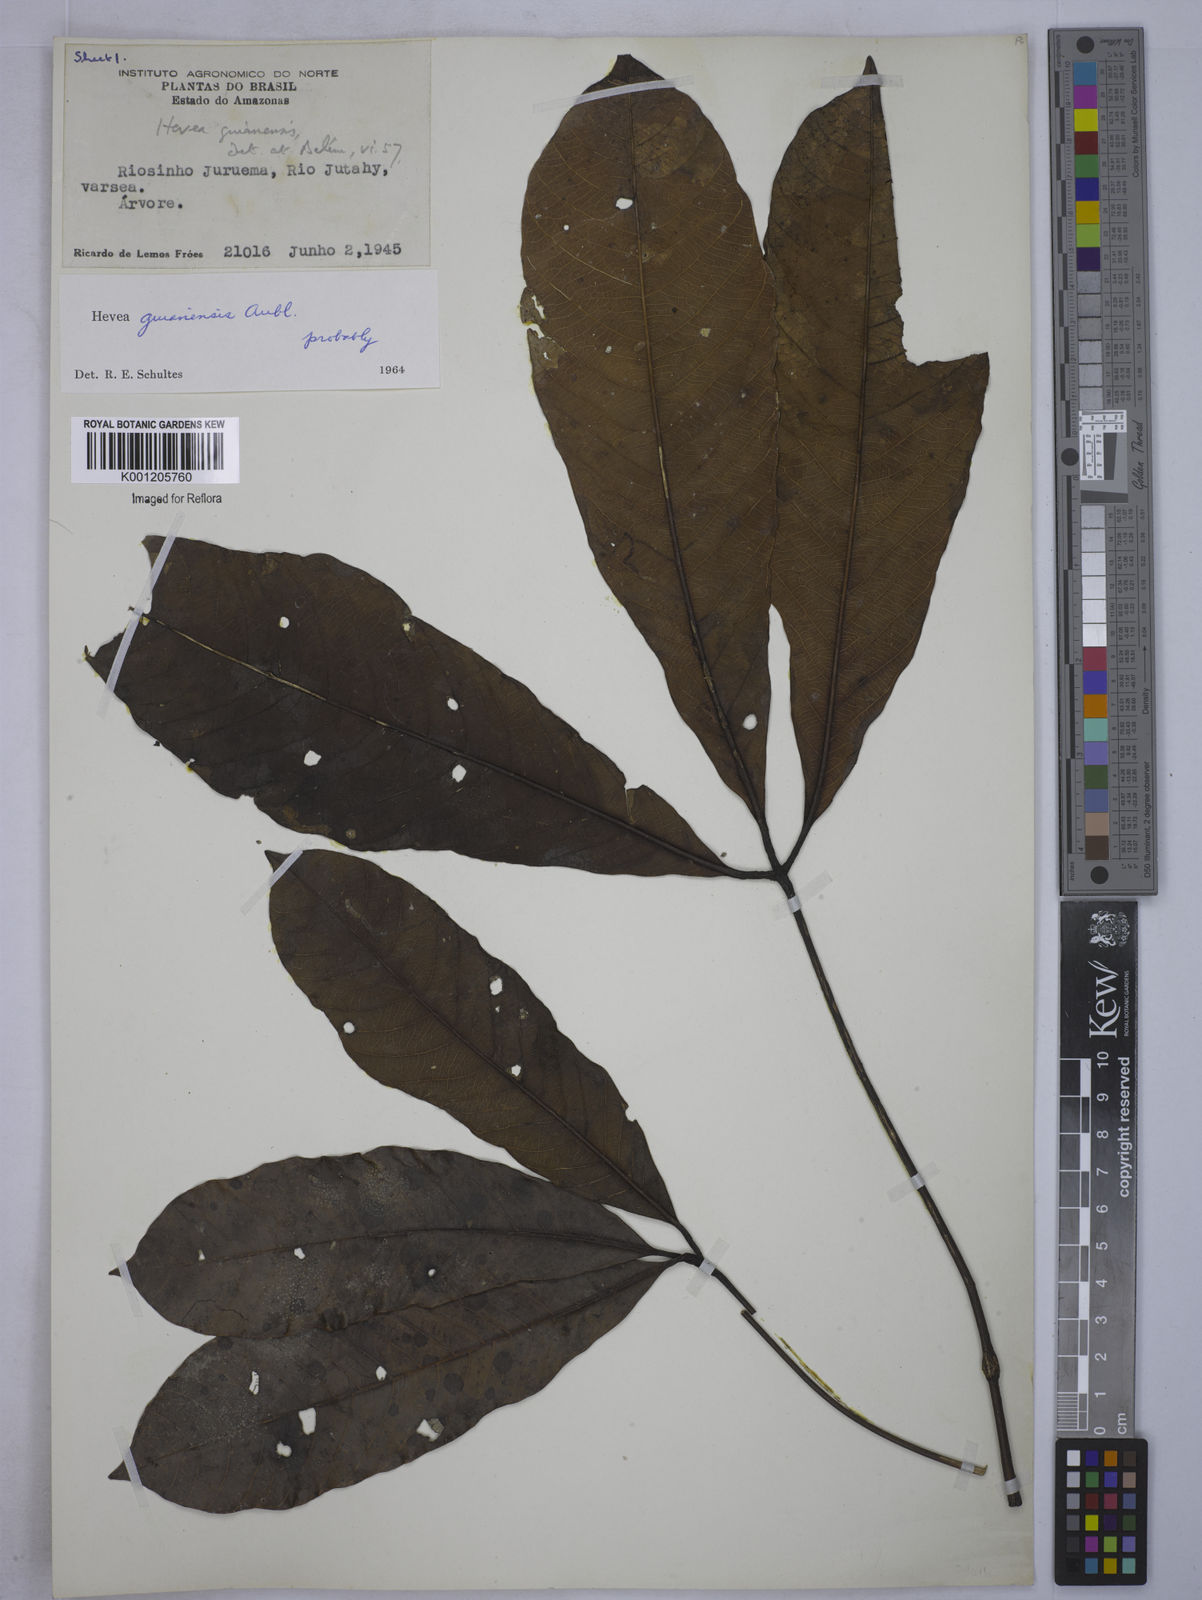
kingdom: Plantae
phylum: Tracheophyta
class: Magnoliopsida
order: Malpighiales
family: Euphorbiaceae
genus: Hevea
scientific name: Hevea guianensis
